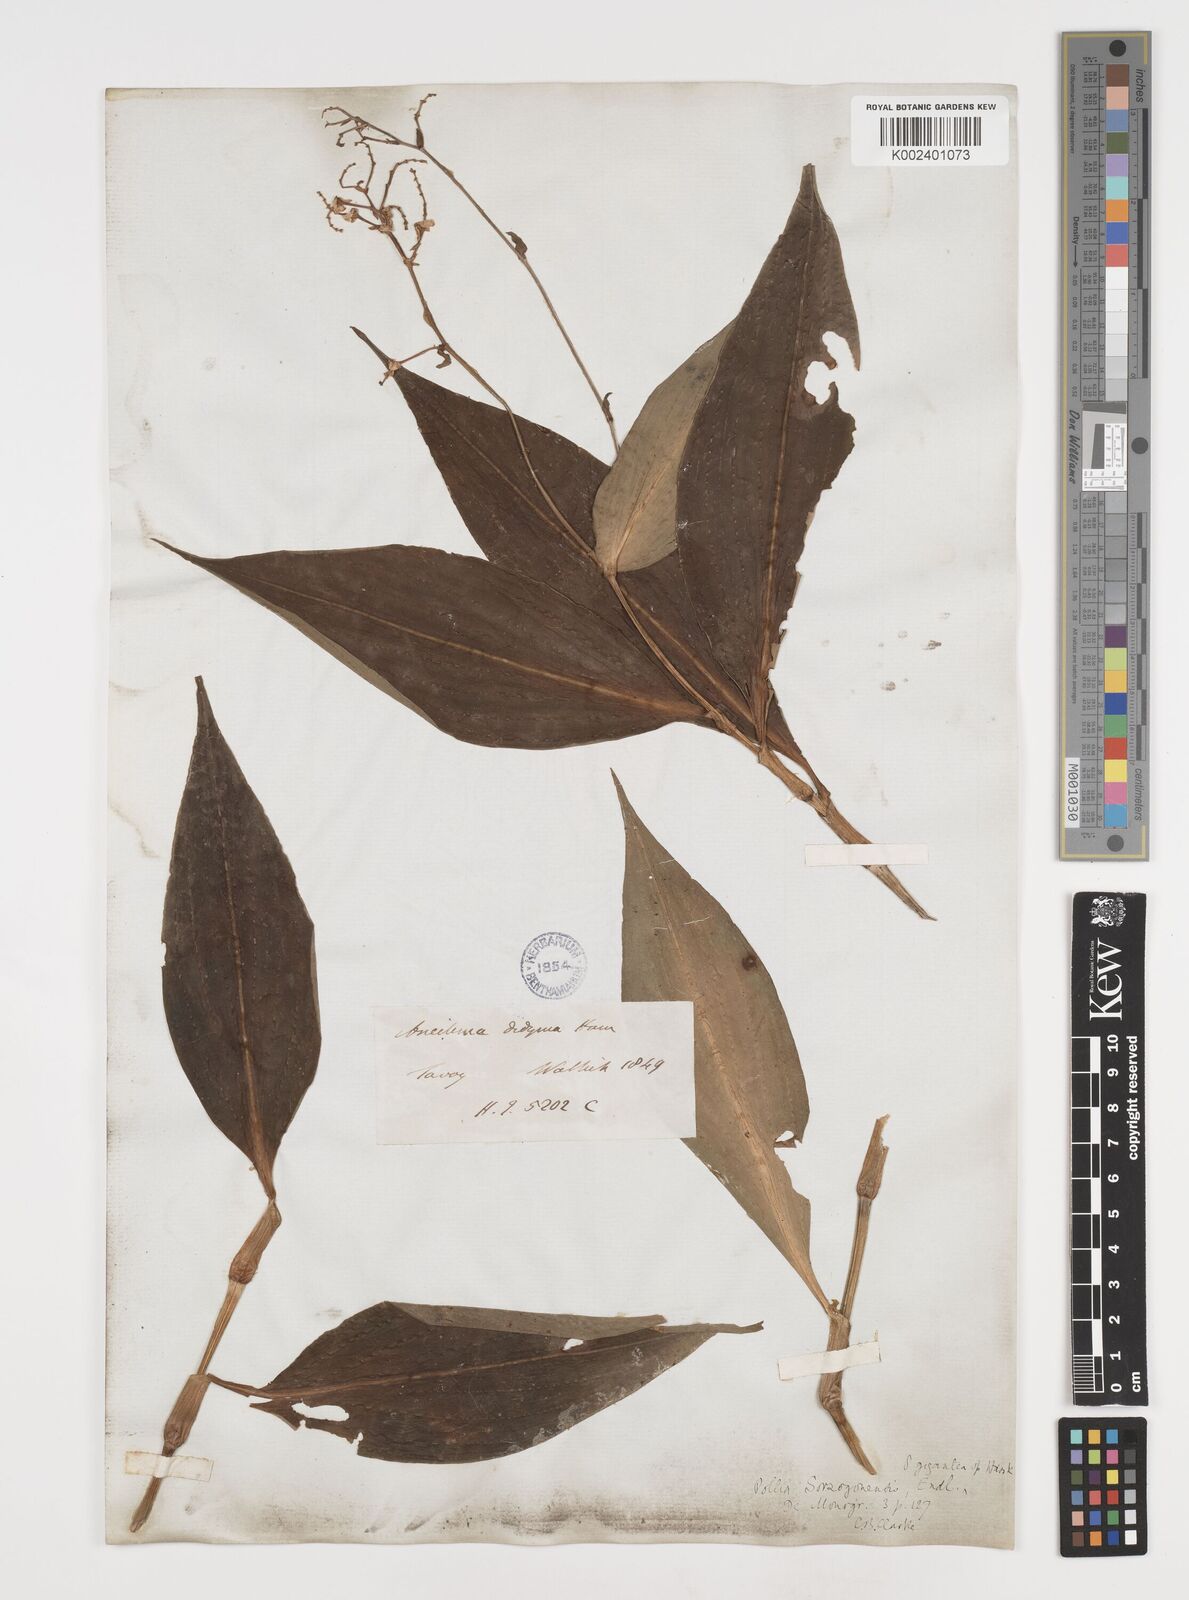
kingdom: Plantae
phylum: Tracheophyta
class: Liliopsida
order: Commelinales
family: Commelinaceae
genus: Pollia
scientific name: Pollia secundiflora
